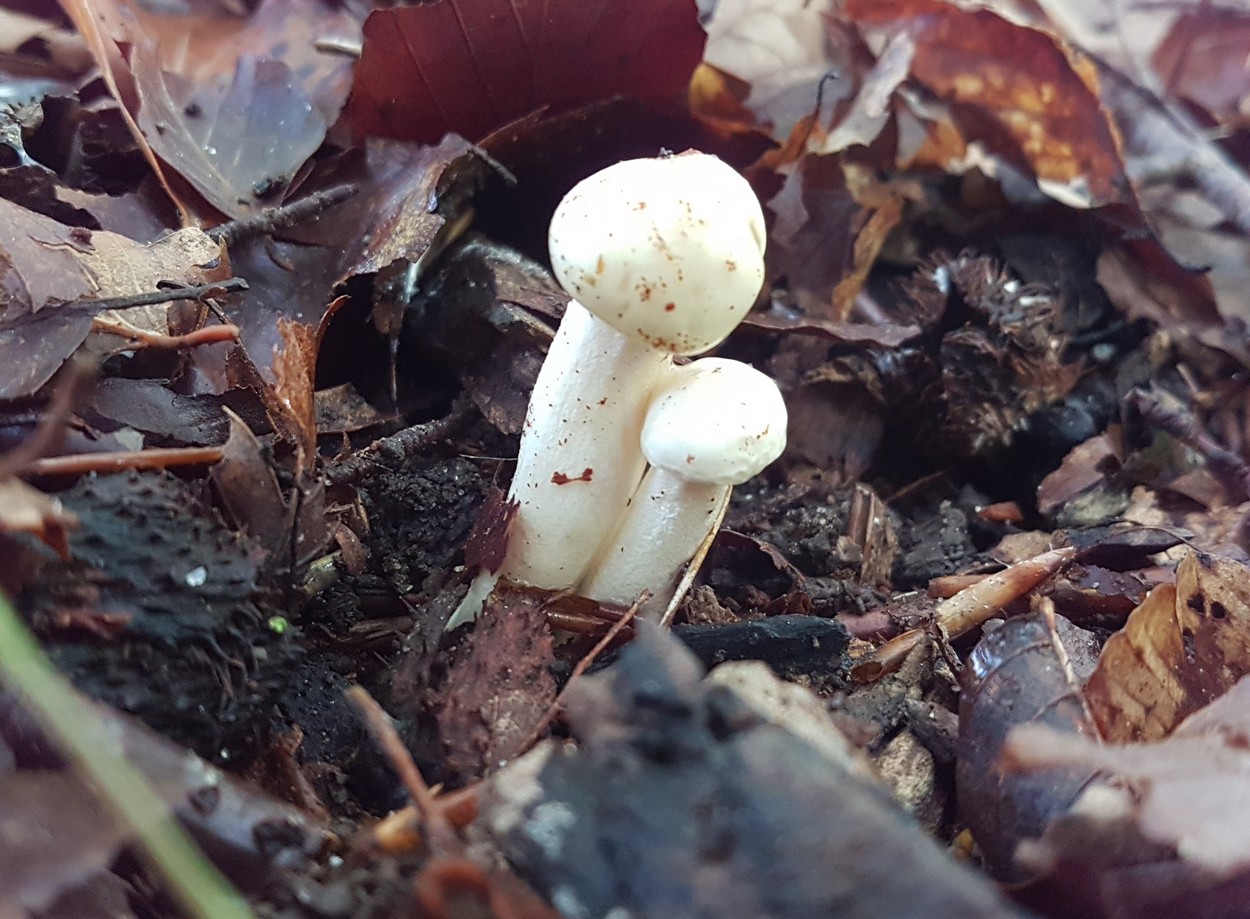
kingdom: Fungi
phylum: Basidiomycota
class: Agaricomycetes
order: Agaricales
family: Hygrophoraceae
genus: Hygrophorus
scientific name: Hygrophorus
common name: sneglehat
